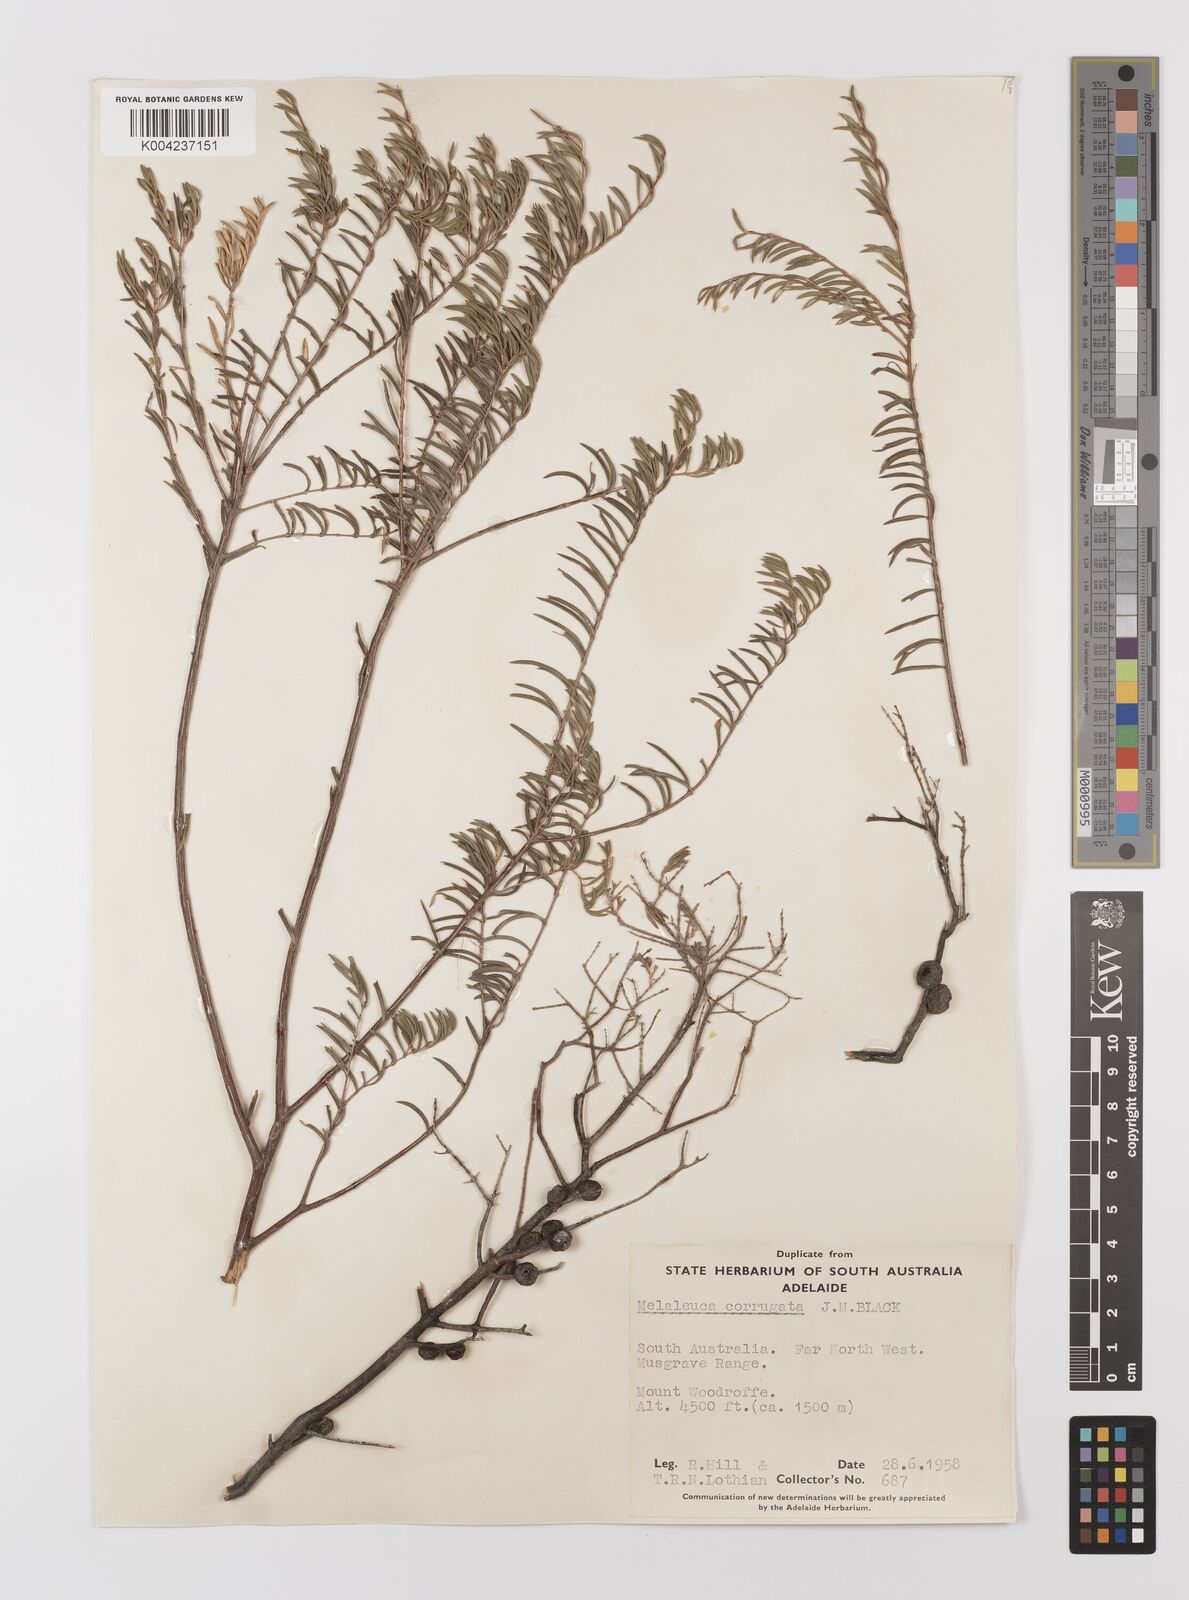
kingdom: Plantae
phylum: Tracheophyta
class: Magnoliopsida
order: Myrtales
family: Myrtaceae
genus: Melaleuca
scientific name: Melaleuca fulgens
